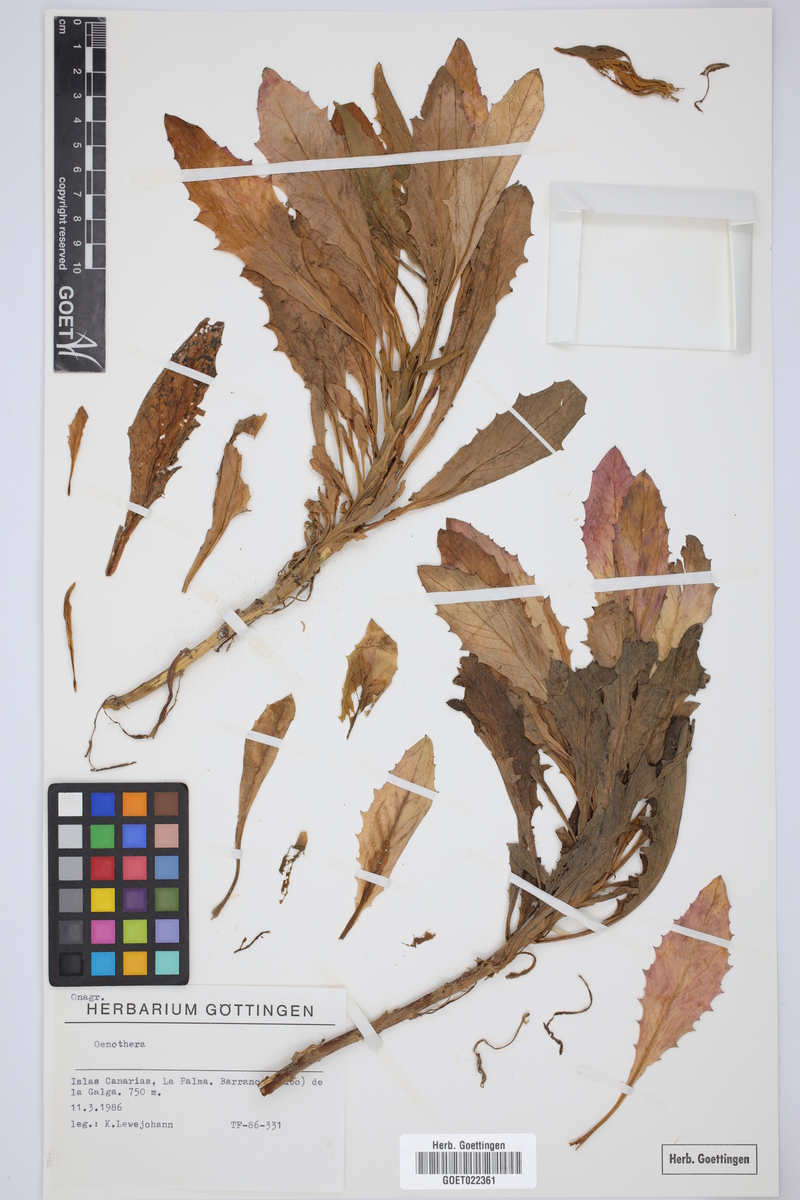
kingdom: Plantae
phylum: Tracheophyta
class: Magnoliopsida
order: Myrtales
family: Onagraceae
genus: Oenothera
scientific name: Oenothera
